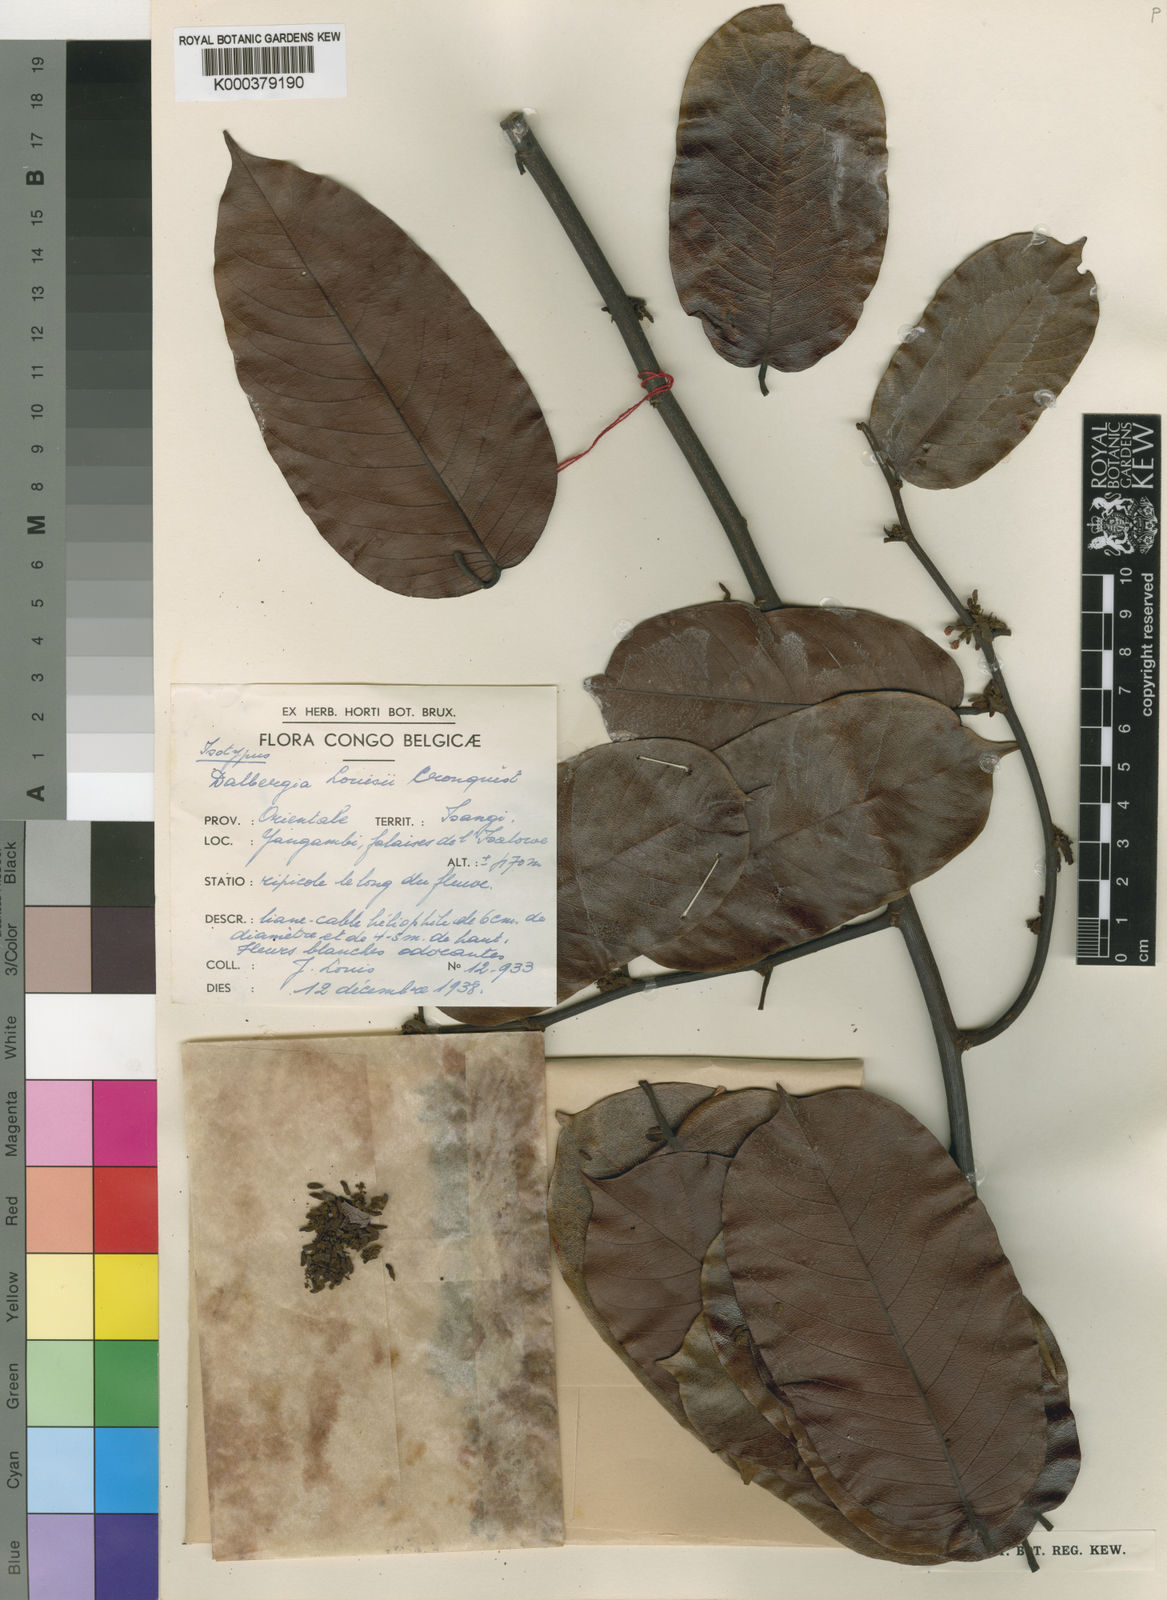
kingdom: Plantae
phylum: Tracheophyta
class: Magnoliopsida
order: Fabales
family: Fabaceae
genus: Dalbergia
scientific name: Dalbergia louisii
